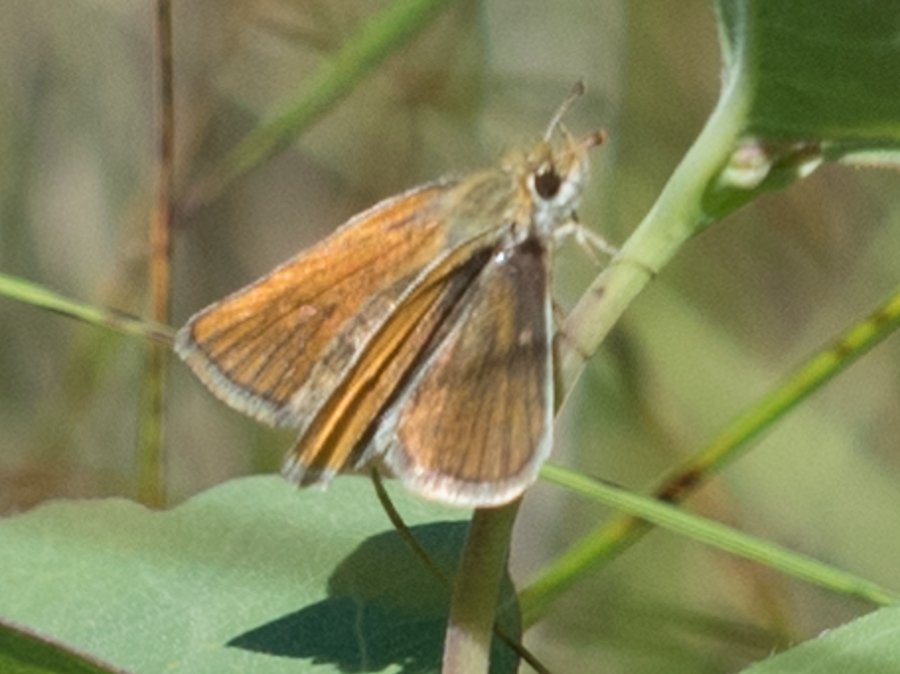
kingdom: Animalia
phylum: Arthropoda
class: Insecta
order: Lepidoptera
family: Hesperiidae
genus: Oarisma
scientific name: Oarisma garita
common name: Garita Skipperling
